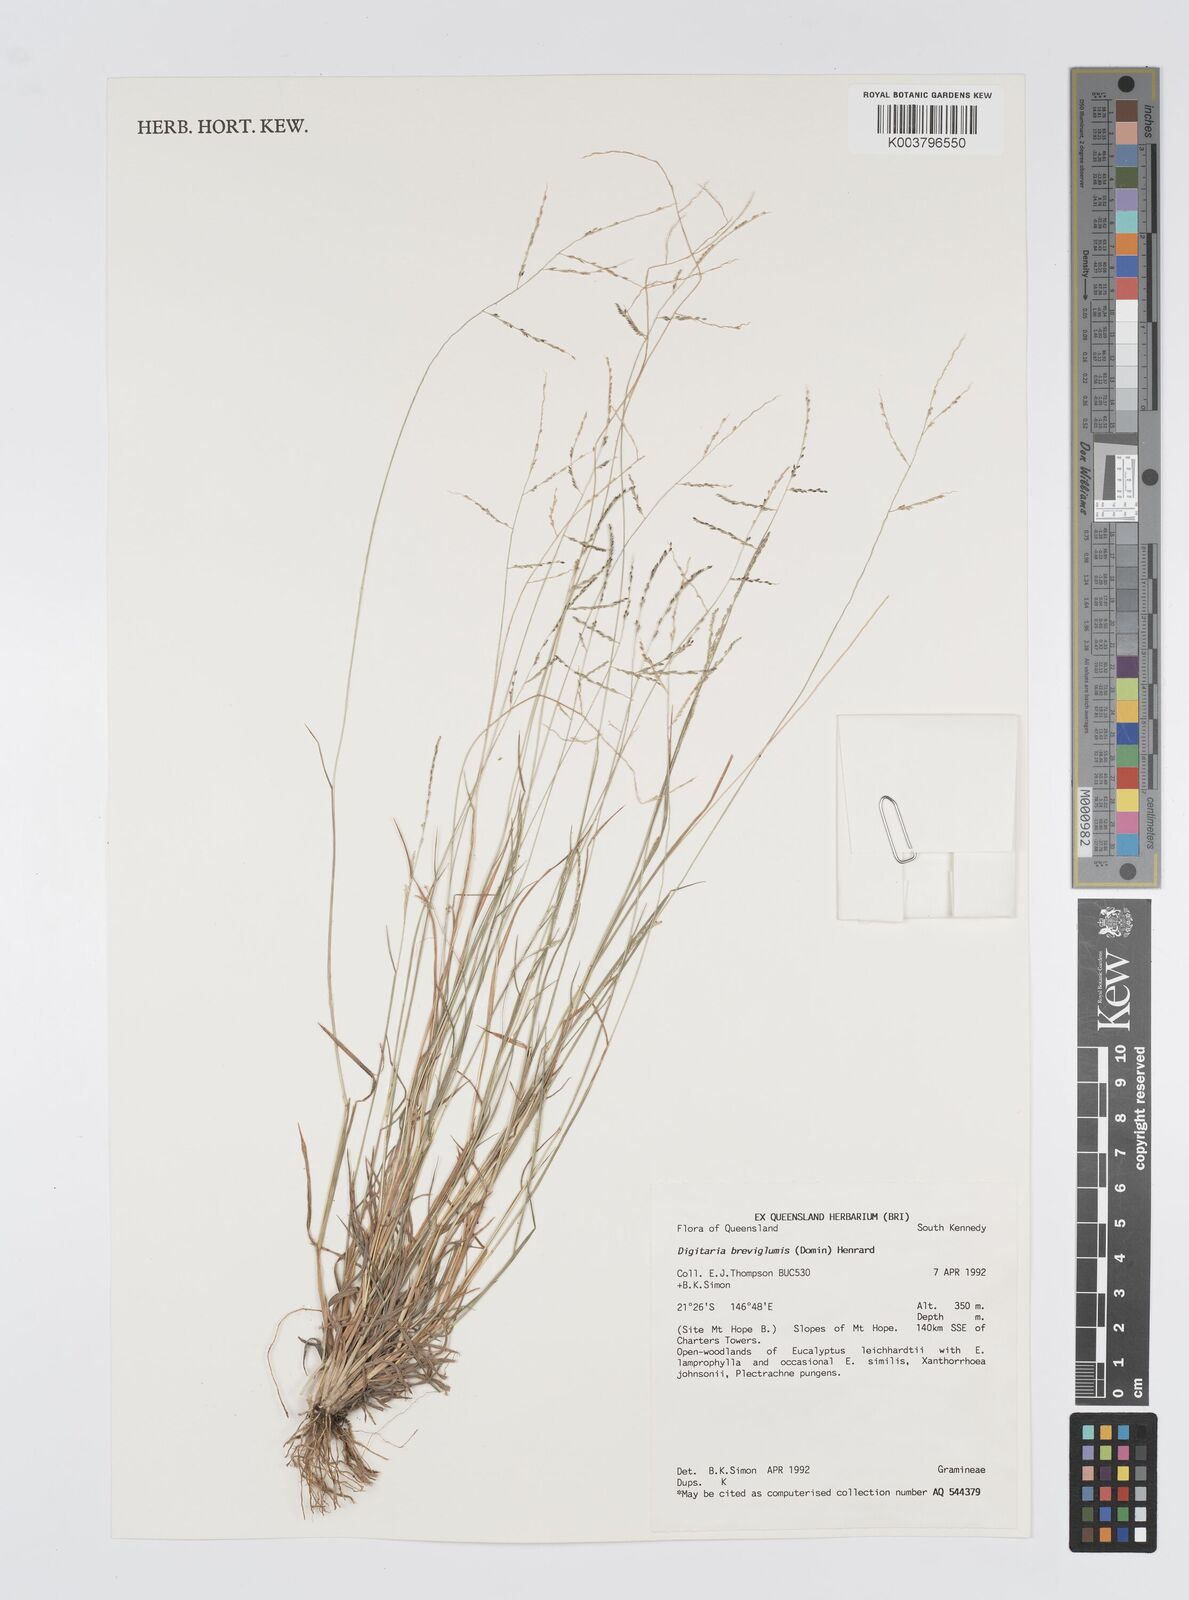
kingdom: Plantae
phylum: Tracheophyta
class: Liliopsida
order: Poales
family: Poaceae
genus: Digitaria
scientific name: Digitaria breviglumis
